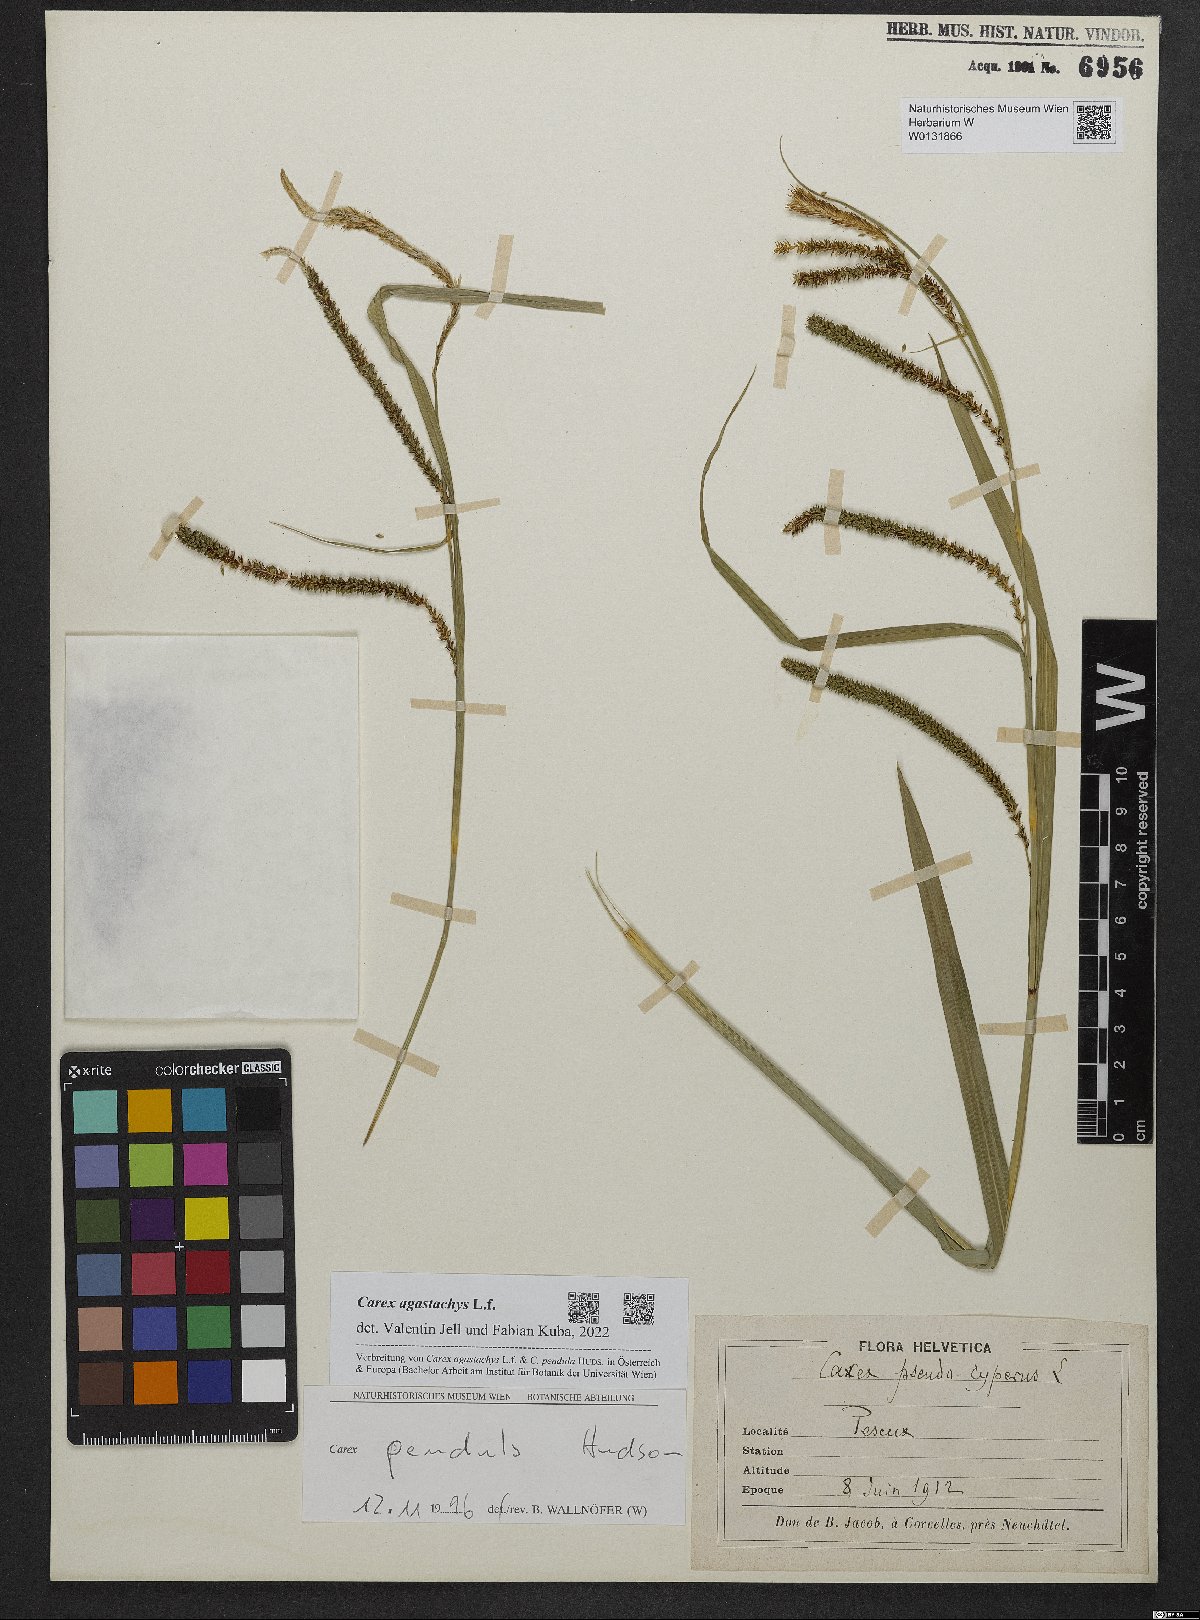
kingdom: Plantae
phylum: Tracheophyta
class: Liliopsida
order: Poales
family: Cyperaceae
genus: Carex
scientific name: Carex agastachys
